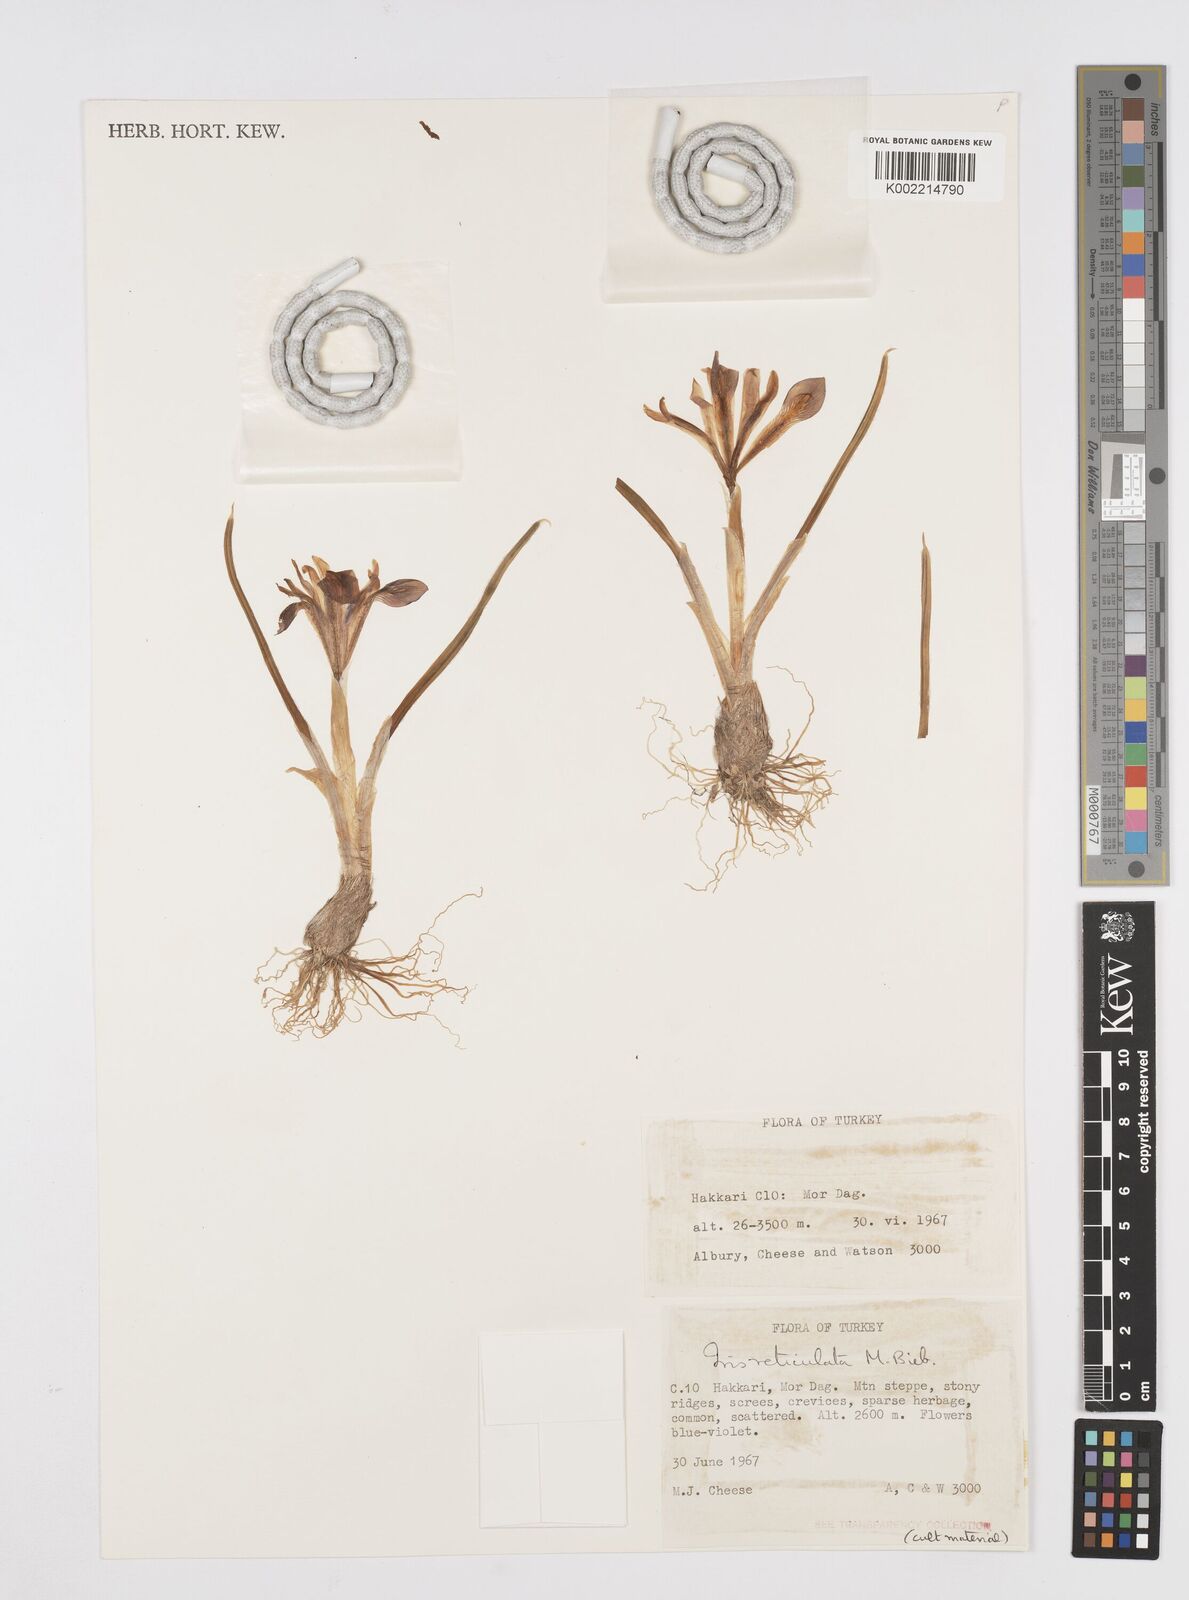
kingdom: Plantae
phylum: Tracheophyta
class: Liliopsida
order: Asparagales
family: Iridaceae
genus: Iris
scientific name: Iris reticulata
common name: Netted iris
